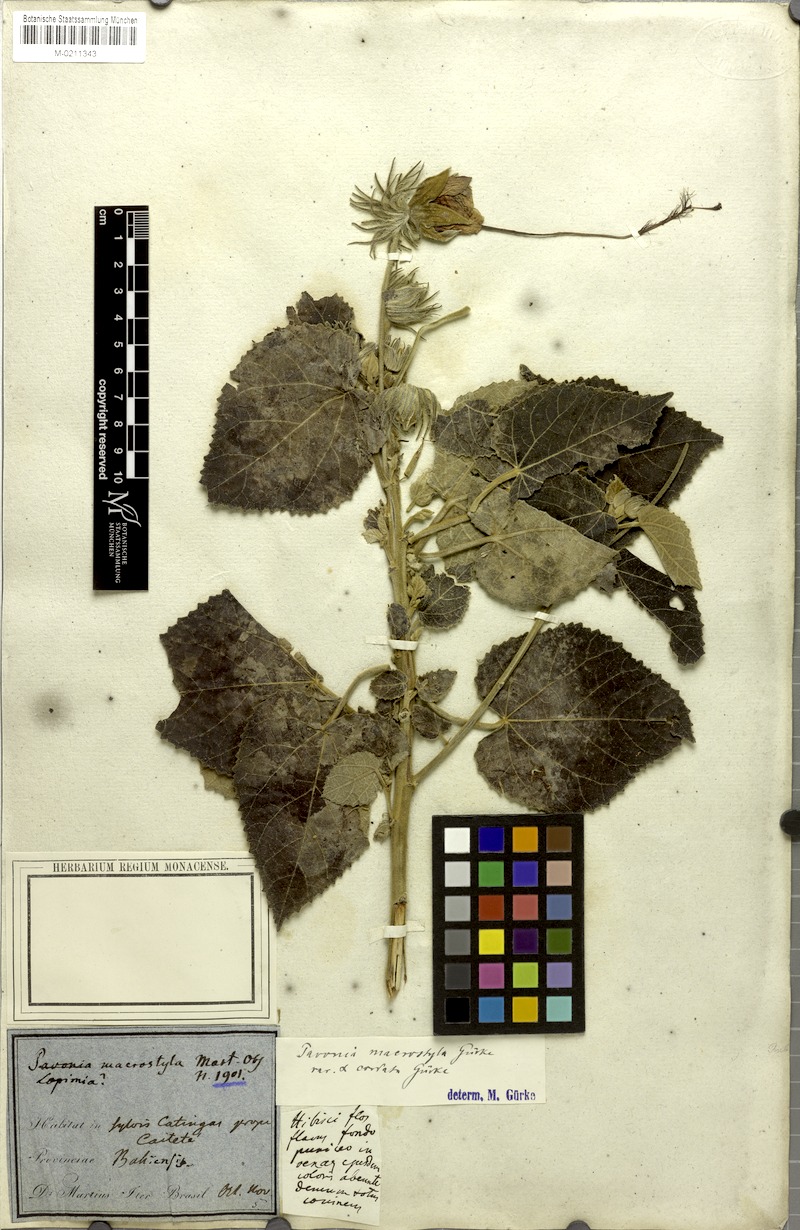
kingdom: Plantae
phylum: Tracheophyta
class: Magnoliopsida
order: Malvales
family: Malvaceae
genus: Pavonia
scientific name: Pavonia macrostyla
